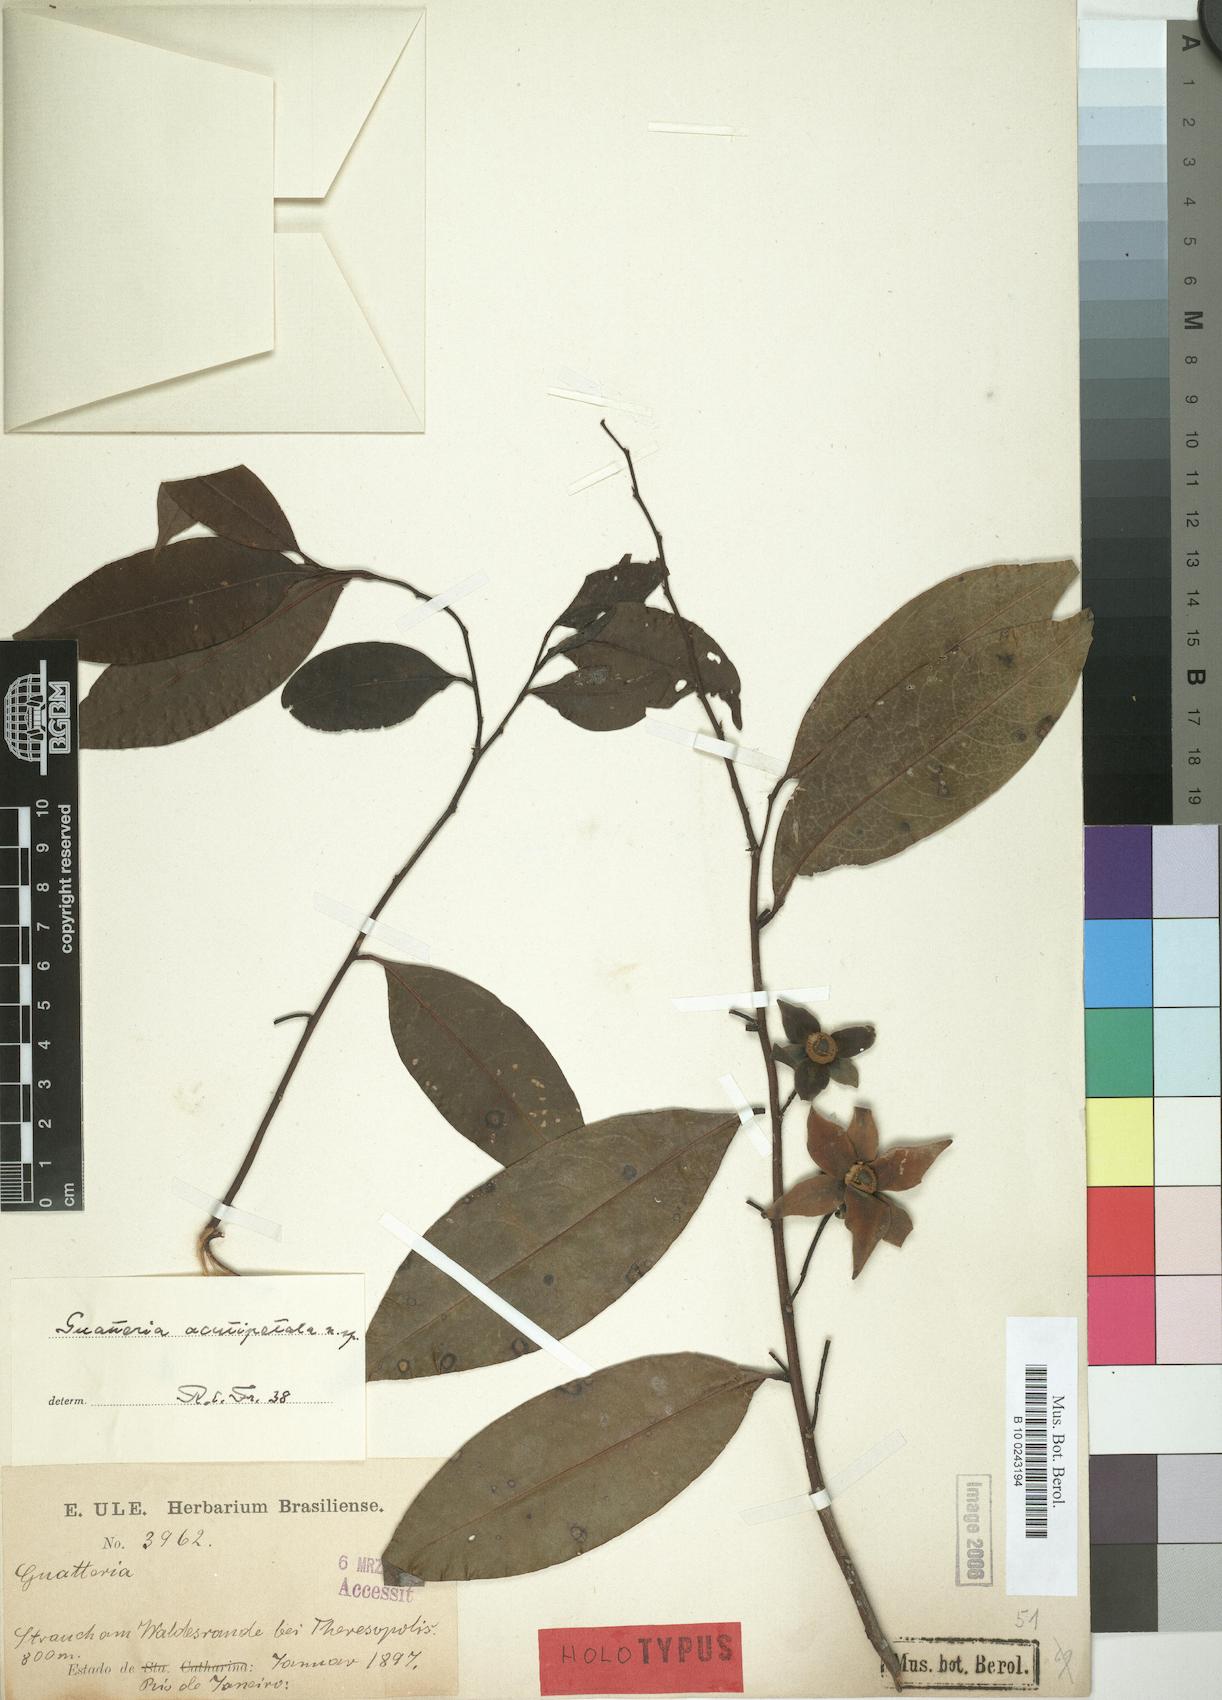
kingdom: Plantae
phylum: Tracheophyta
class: Magnoliopsida
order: Magnoliales
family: Annonaceae
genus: Guatteria
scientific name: Guatteria australis
